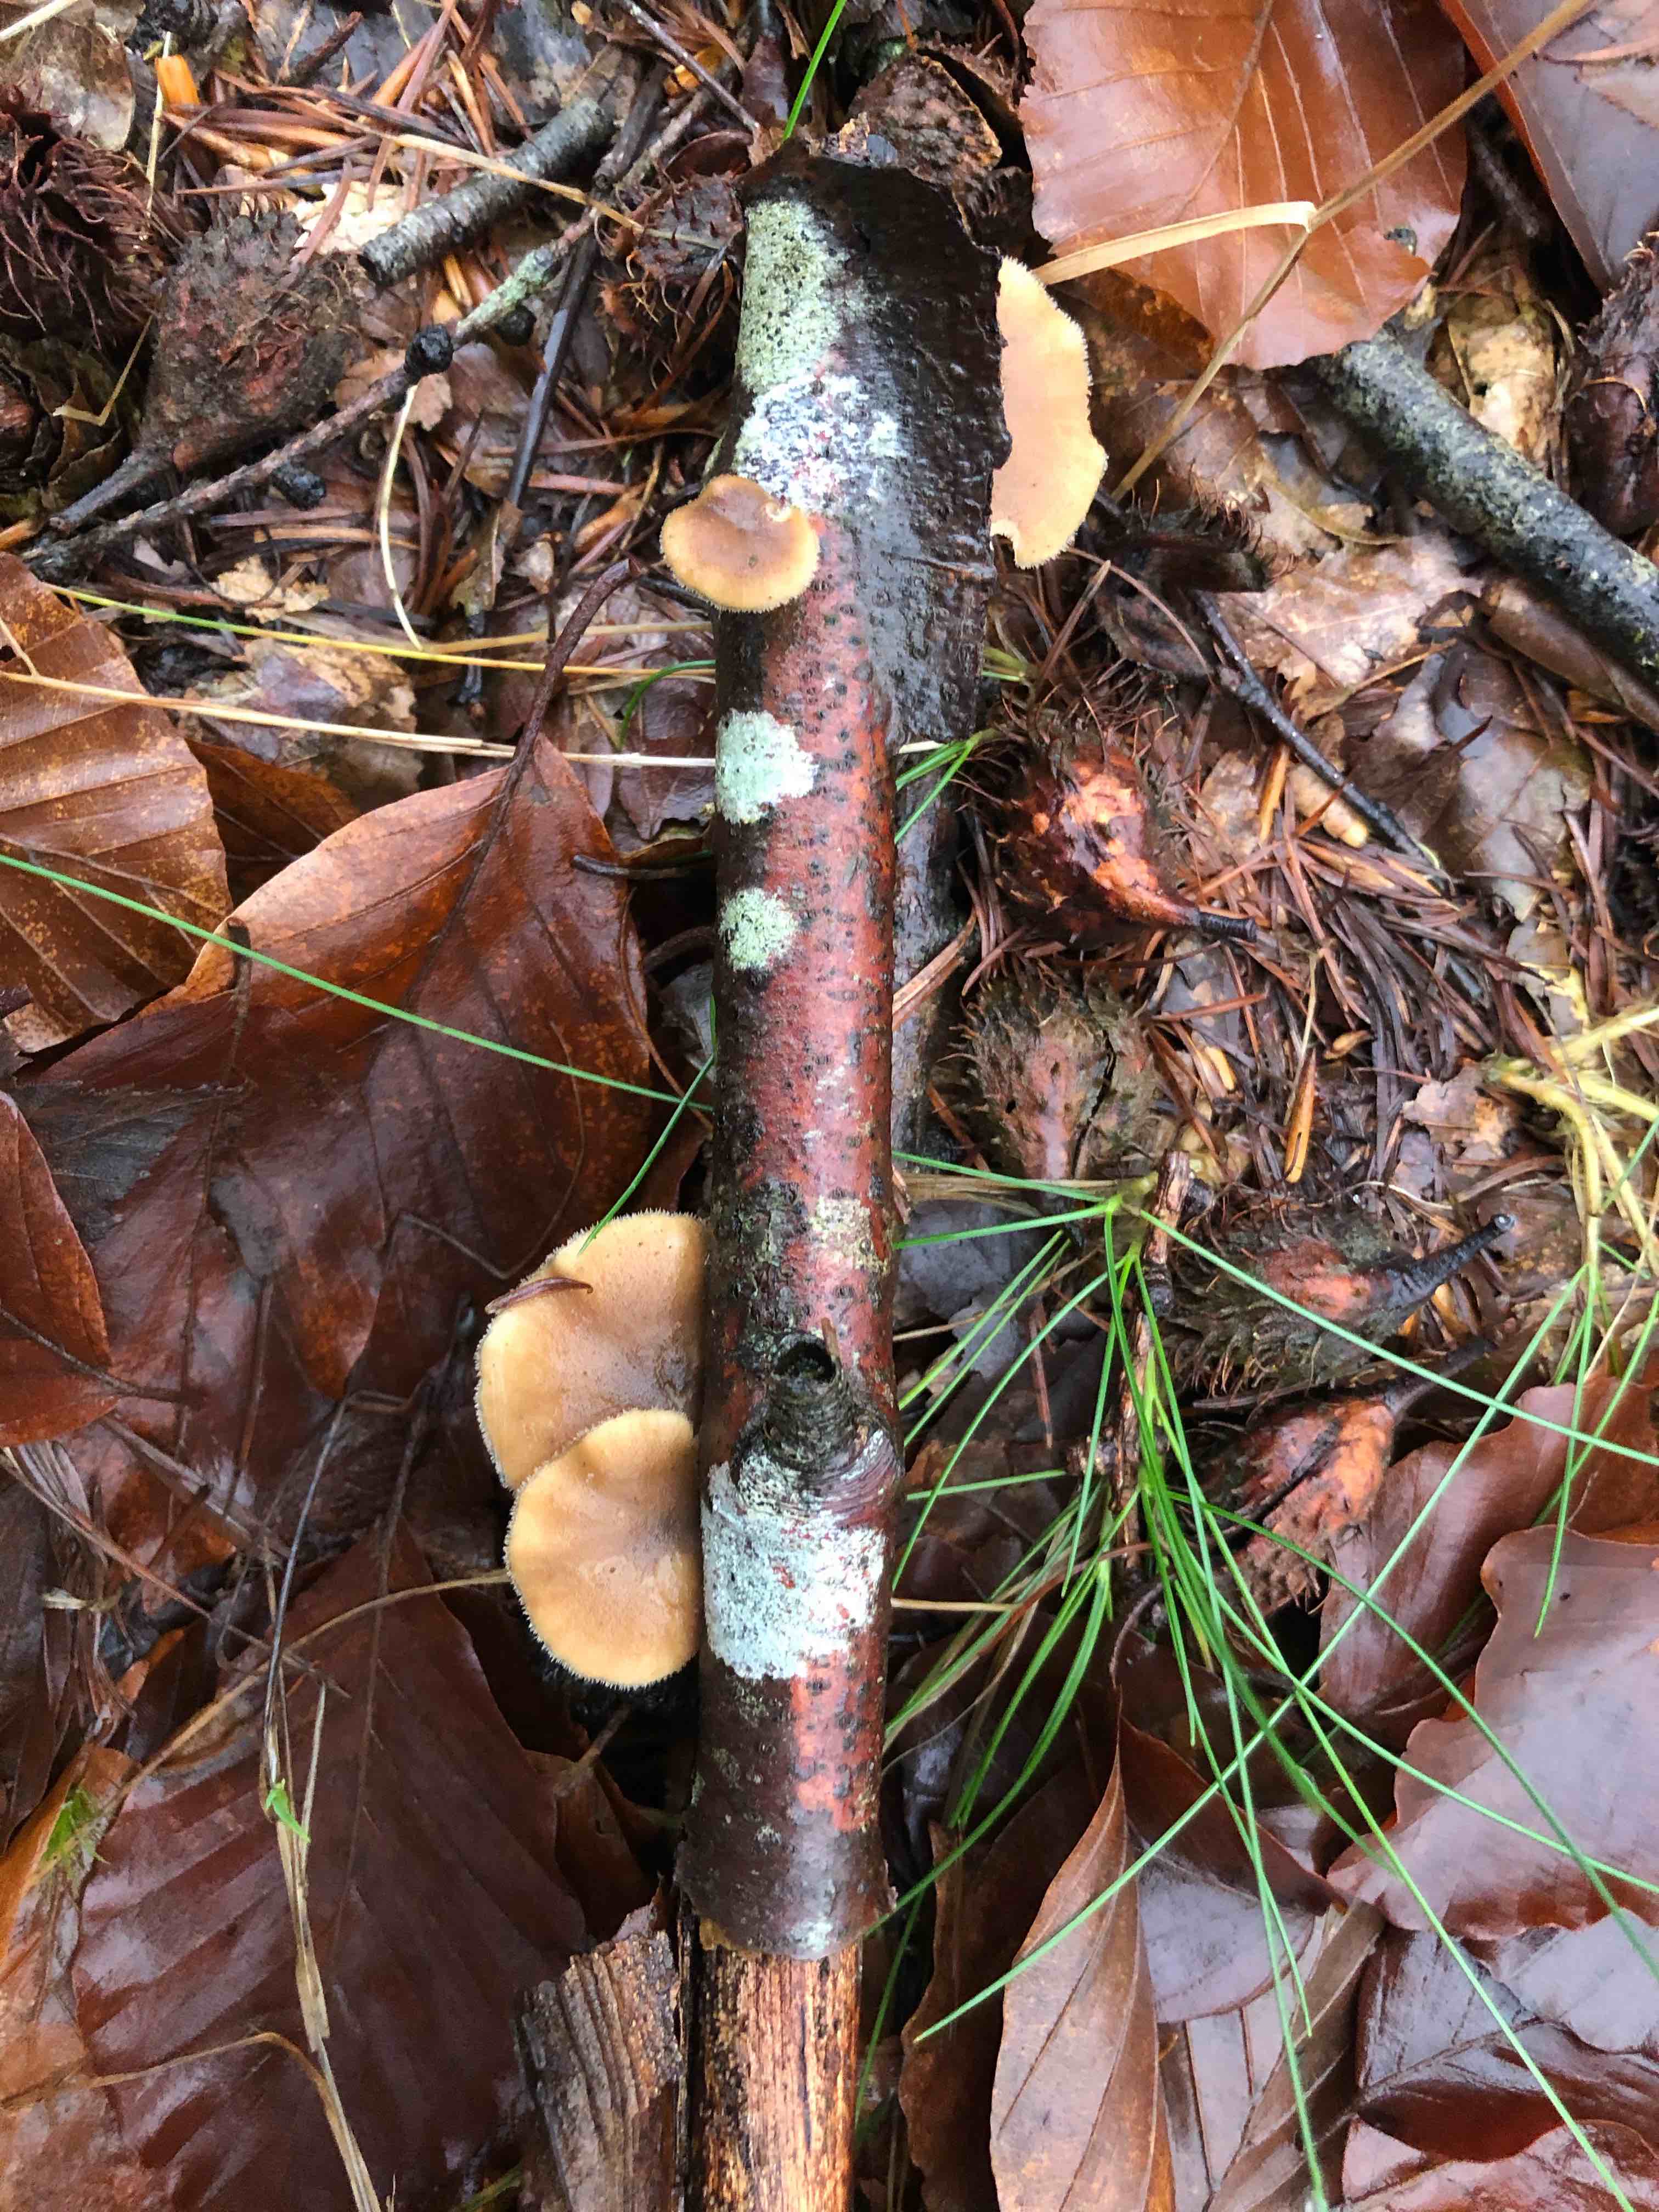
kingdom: Fungi
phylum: Basidiomycota
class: Agaricomycetes
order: Polyporales
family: Polyporaceae
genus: Lentinus
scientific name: Lentinus brumalis
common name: vinter-stilkporesvamp
